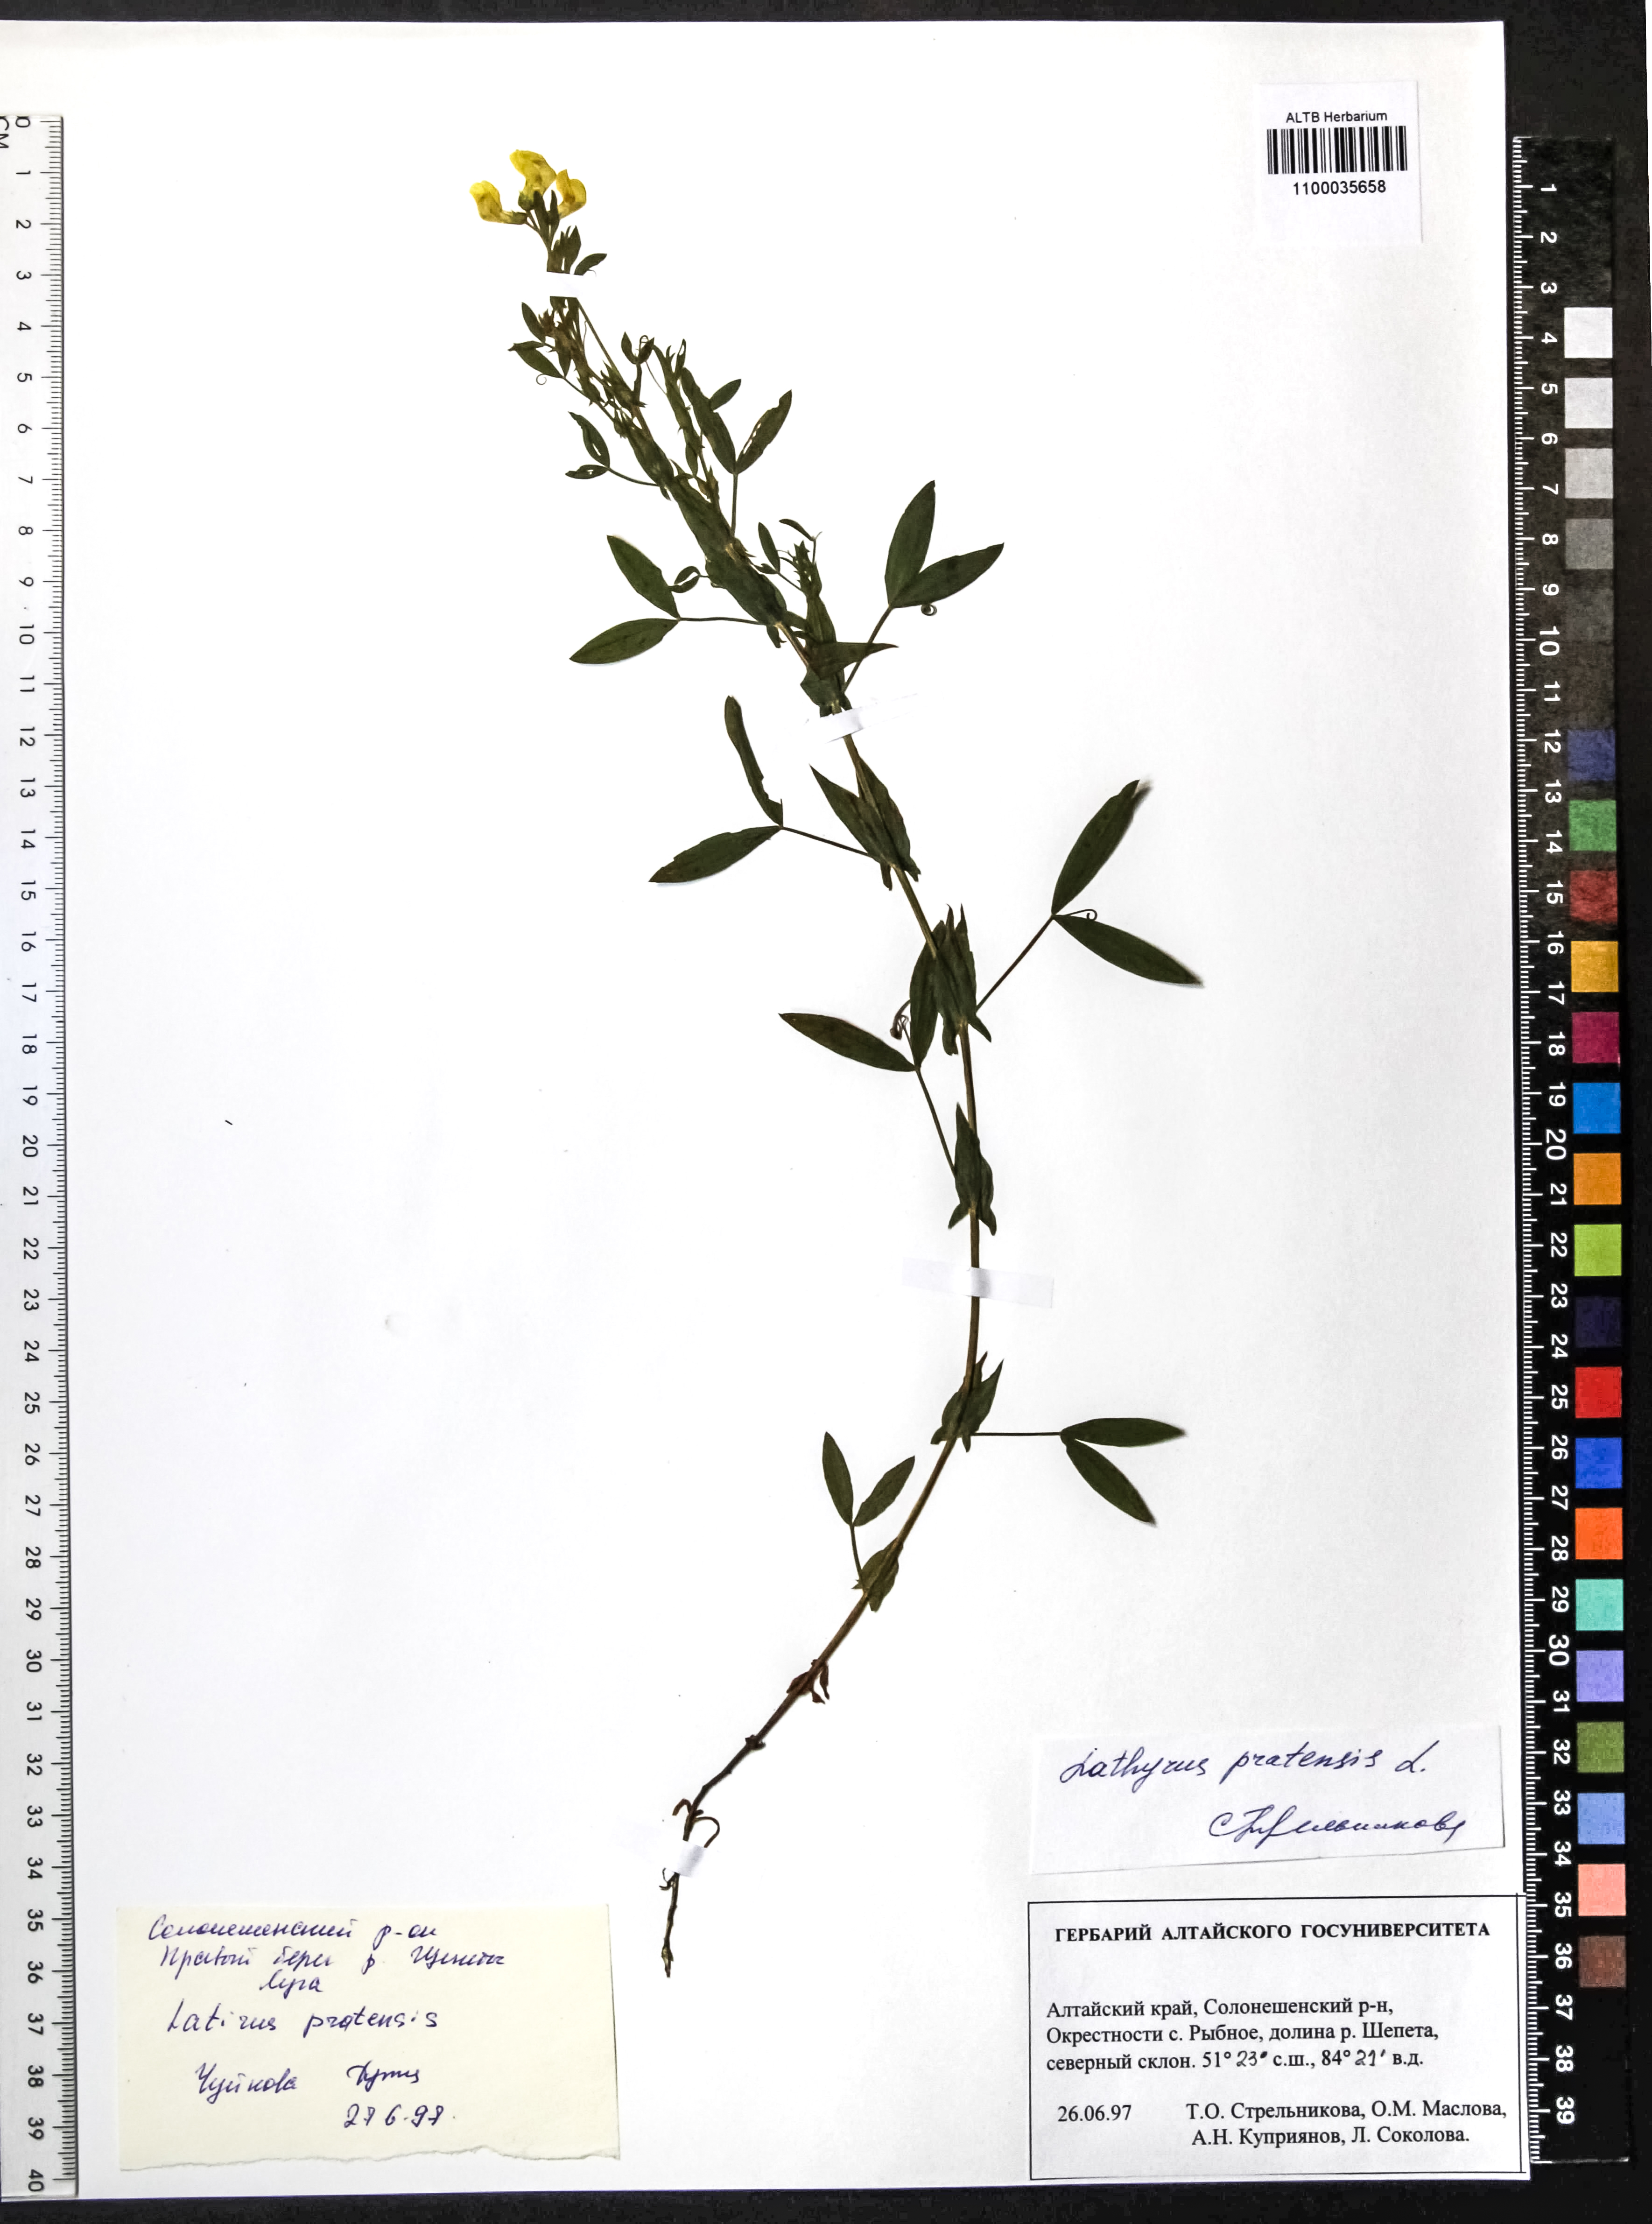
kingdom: Plantae
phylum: Tracheophyta
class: Magnoliopsida
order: Fabales
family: Fabaceae
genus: Lathyrus
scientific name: Lathyrus pratensis
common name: Meadow vetchling
